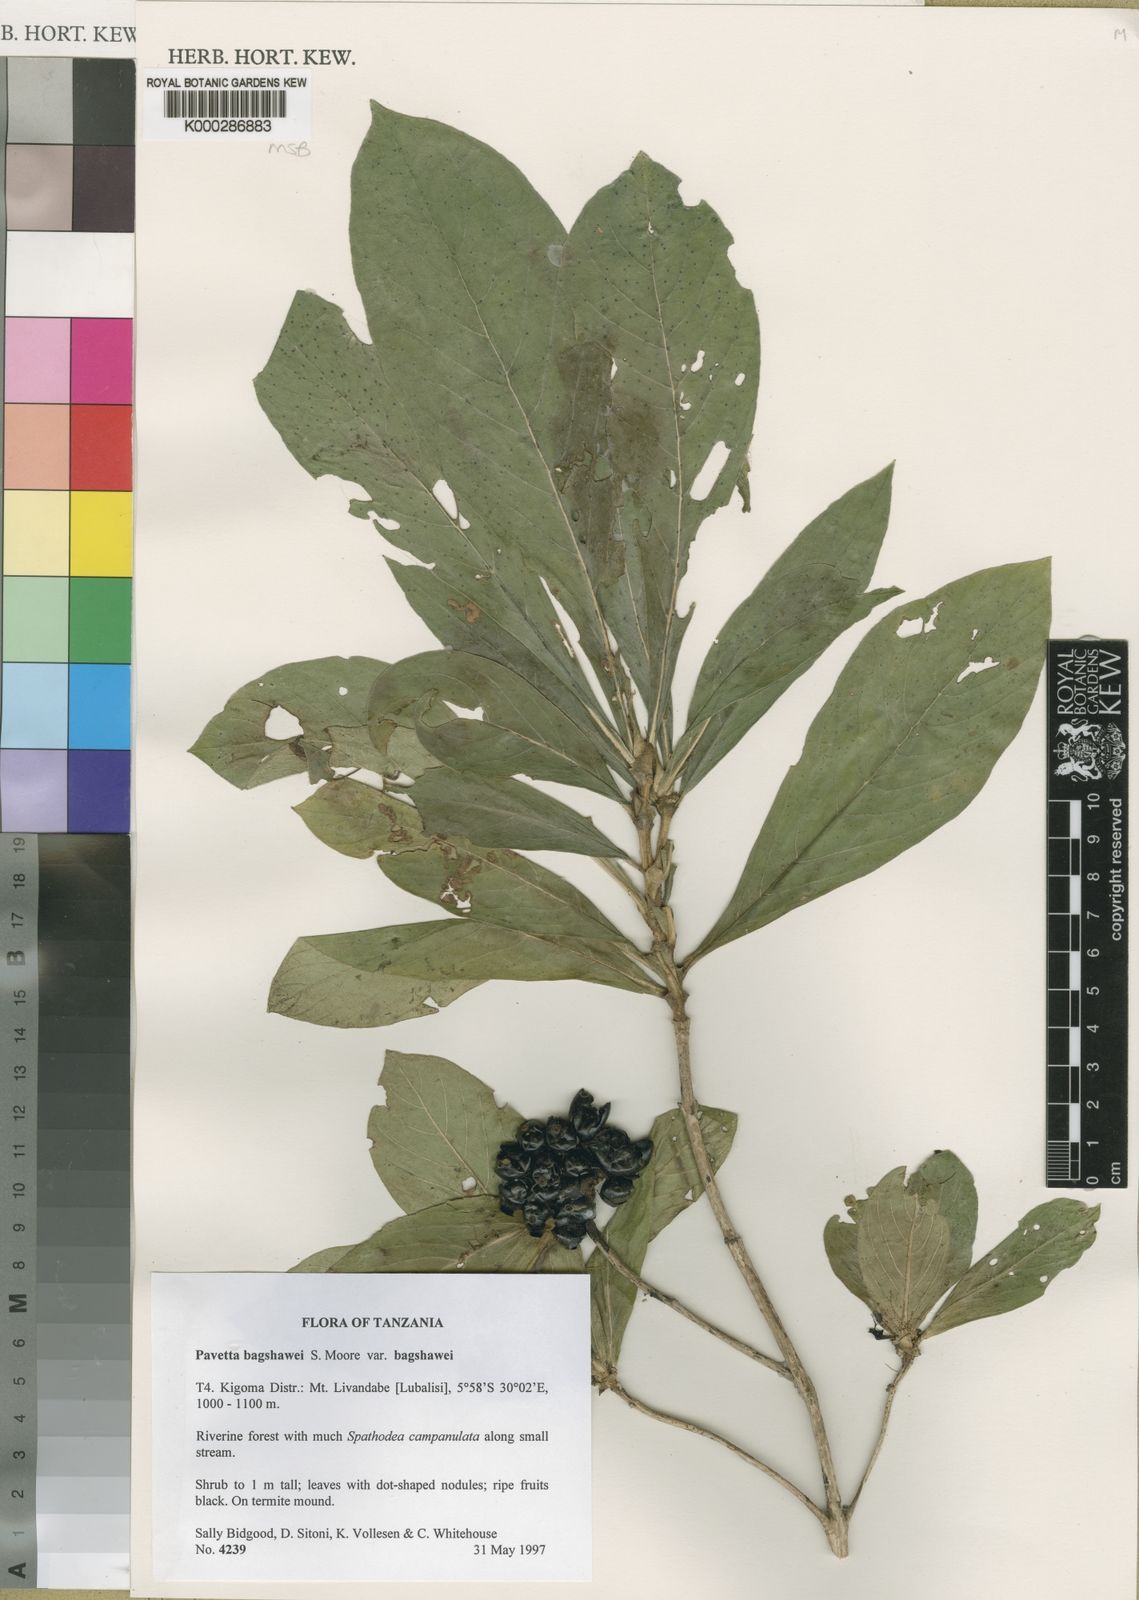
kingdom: Plantae
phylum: Tracheophyta
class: Magnoliopsida
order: Gentianales
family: Rubiaceae
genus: Pavetta
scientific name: Pavetta bidgoodiae
